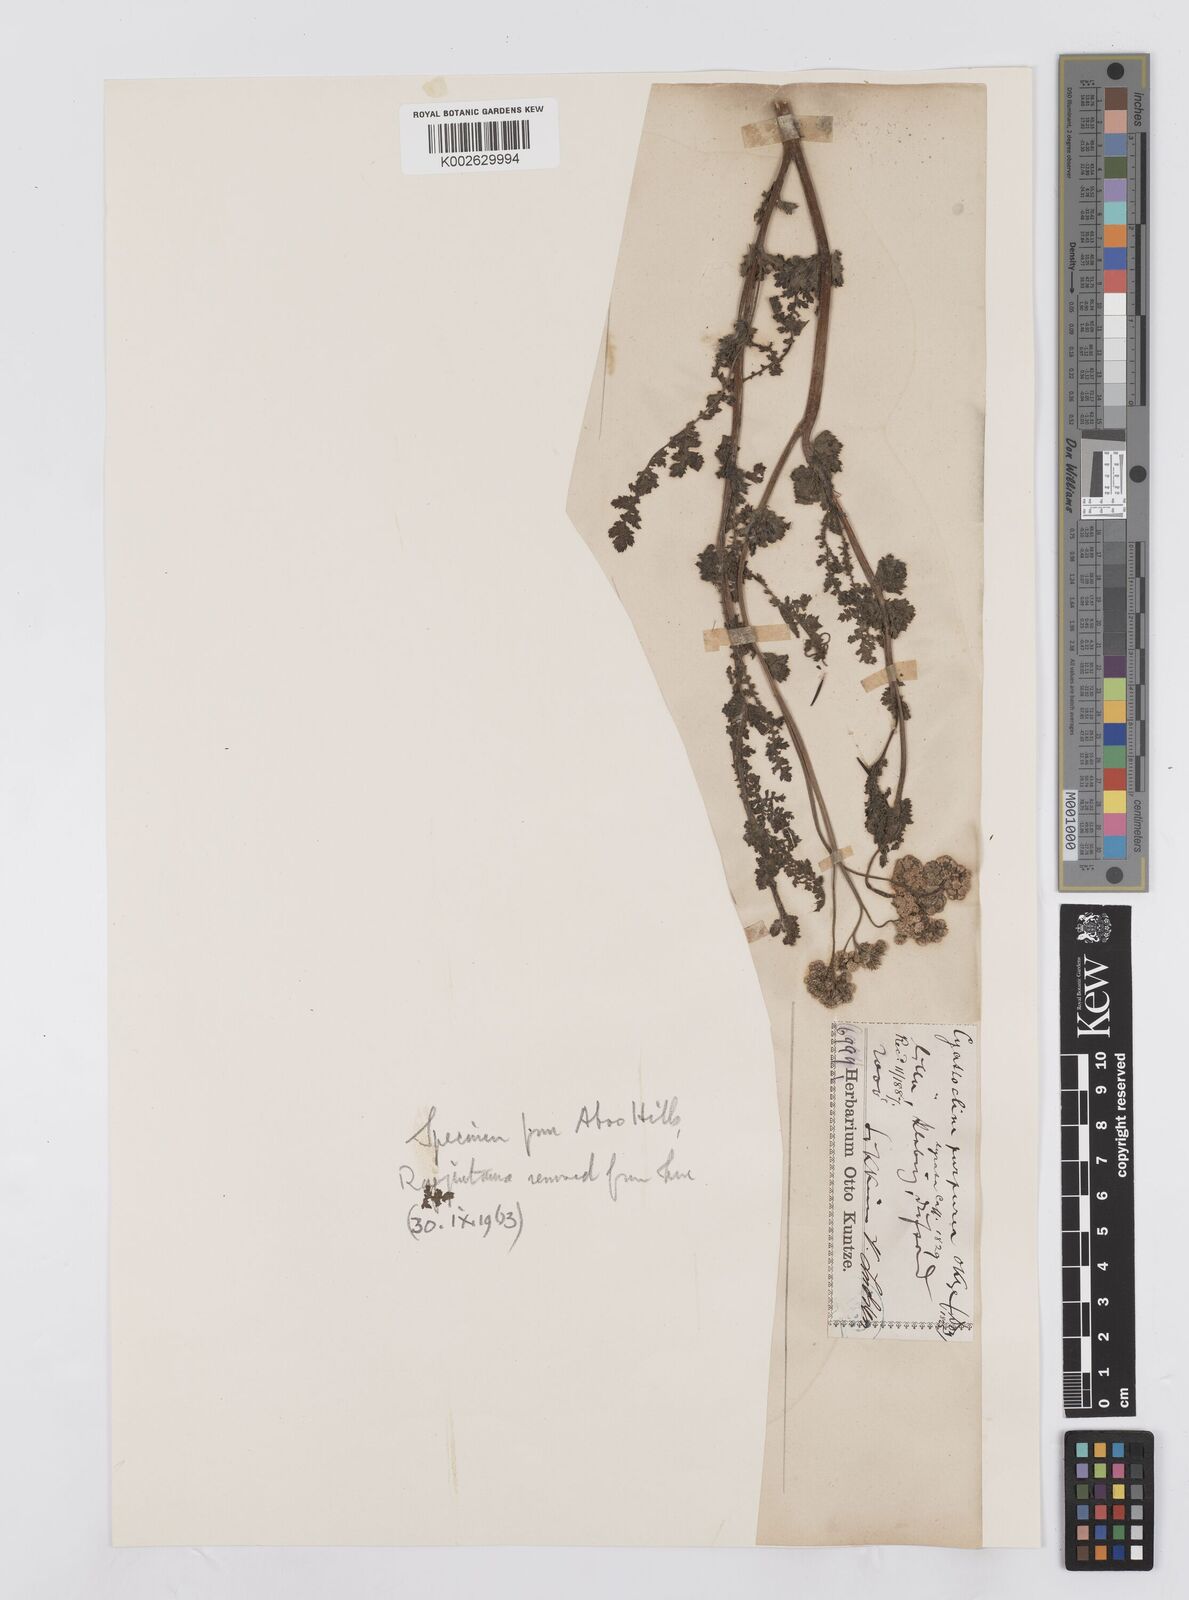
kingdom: Plantae
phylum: Tracheophyta
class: Magnoliopsida
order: Asterales
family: Asteraceae
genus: Cyathocline
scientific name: Cyathocline purpurea
